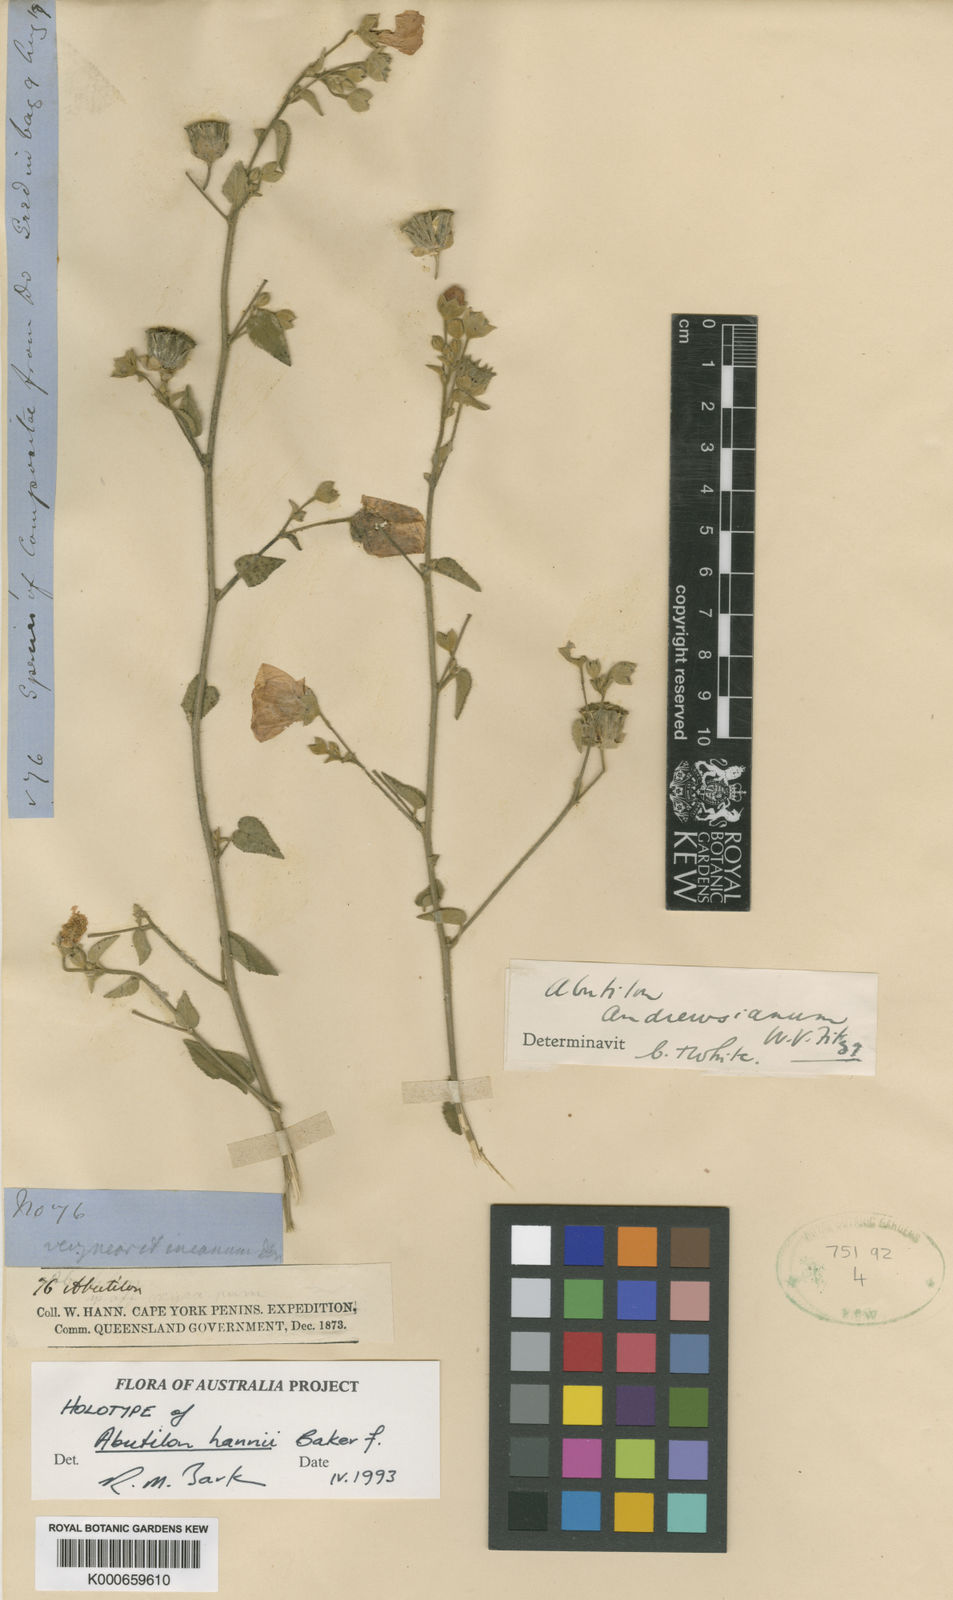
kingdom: Plantae
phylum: Tracheophyta
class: Magnoliopsida
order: Malvales
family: Malvaceae
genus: Abutilon
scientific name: Abutilon hannii
